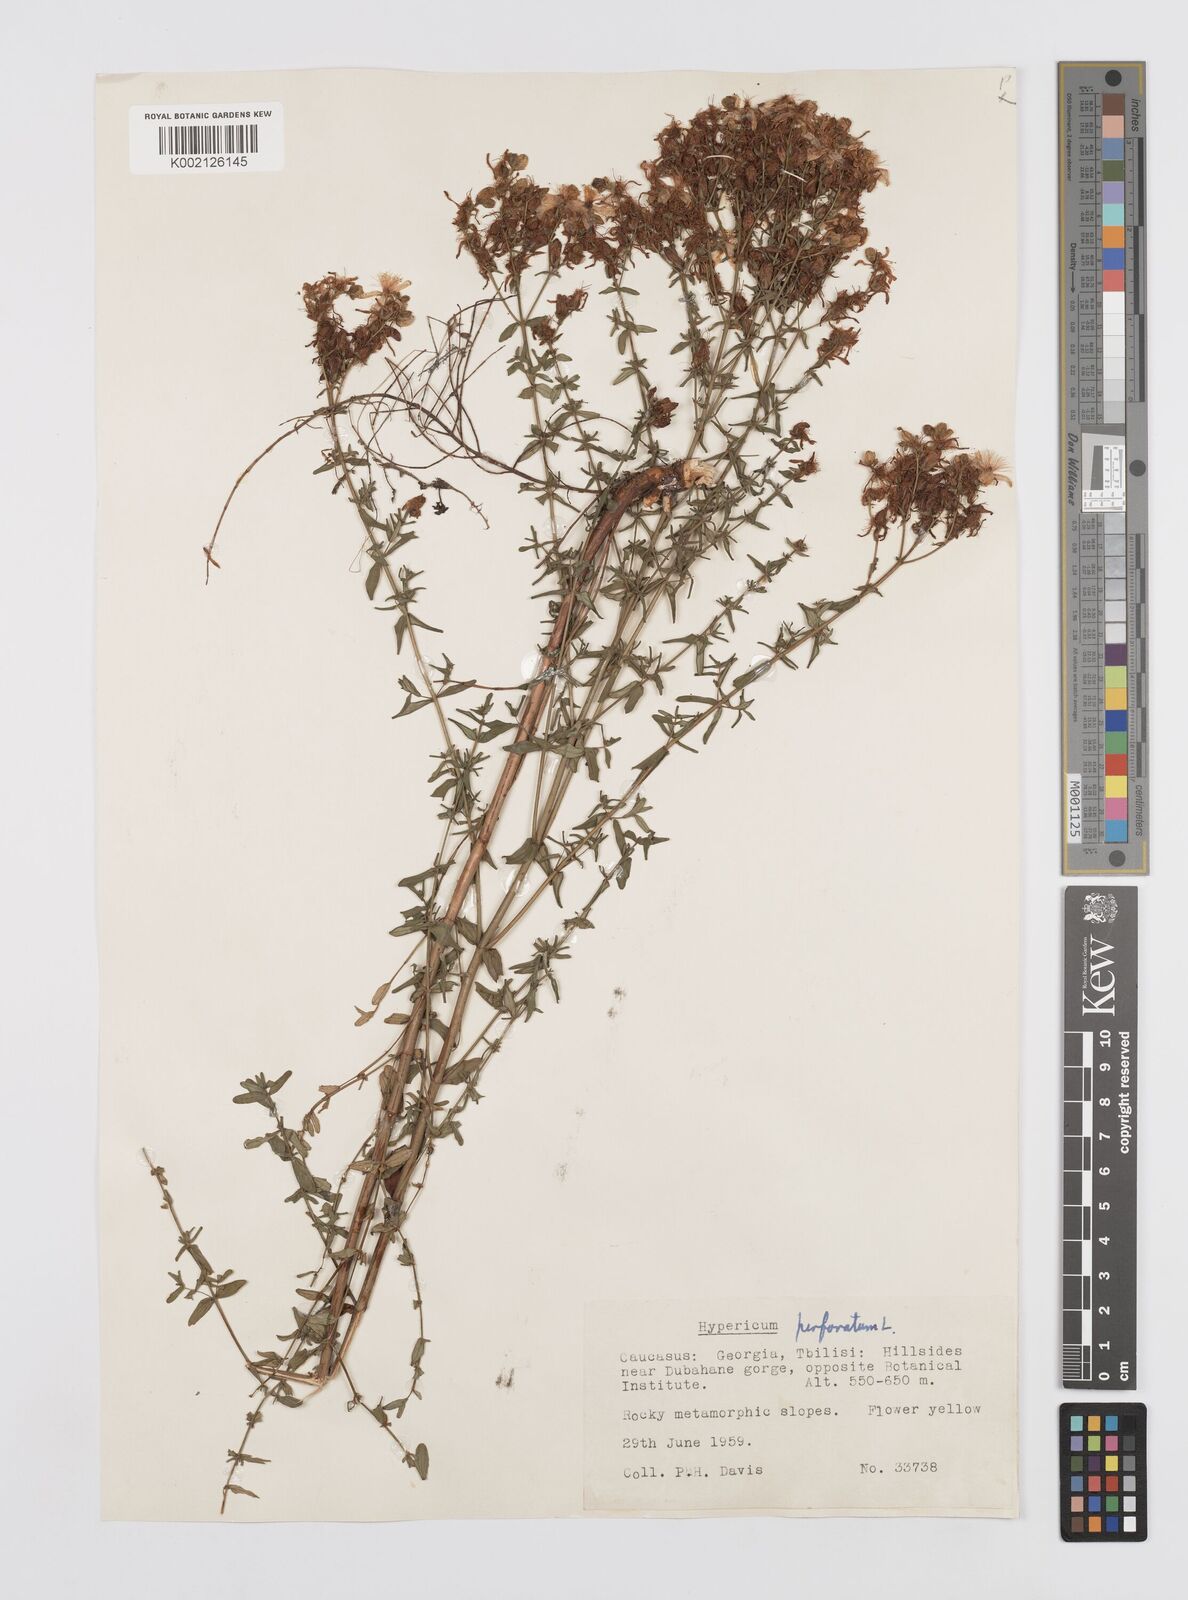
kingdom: Plantae
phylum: Tracheophyta
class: Magnoliopsida
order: Malpighiales
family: Hypericaceae
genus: Hypericum
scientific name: Hypericum perfoliatum
